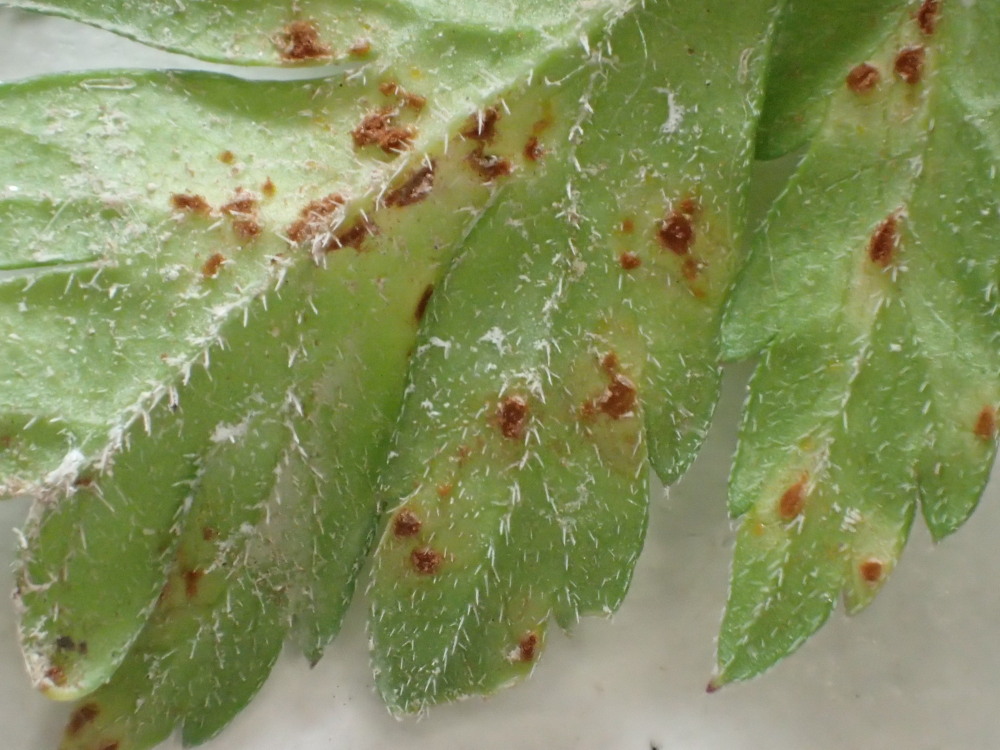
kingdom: Fungi
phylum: Basidiomycota
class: Pucciniomycetes
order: Pucciniales
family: Pucciniaceae
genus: Puccinia
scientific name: Puccinia chaerophylli
